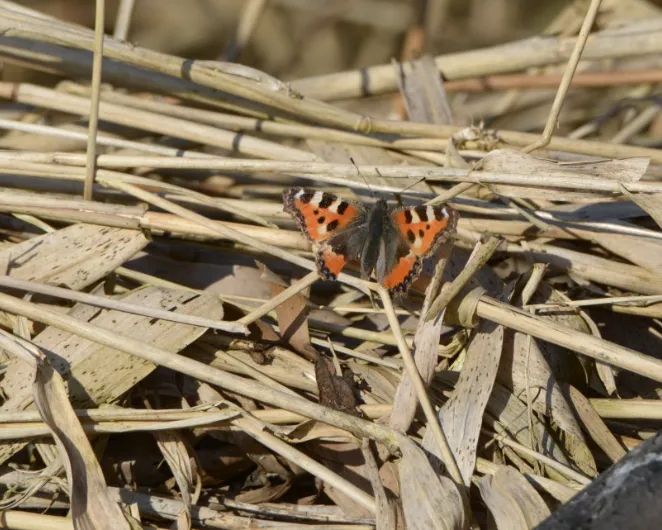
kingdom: Animalia
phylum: Arthropoda
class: Insecta
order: Lepidoptera
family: Nymphalidae
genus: Aglais
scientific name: Aglais urticae
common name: Nældens takvinge
